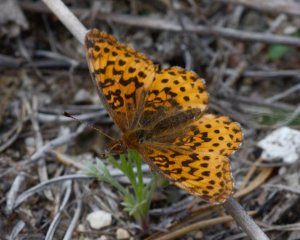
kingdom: Animalia
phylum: Arthropoda
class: Insecta
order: Lepidoptera
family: Nymphalidae
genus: Clossiana
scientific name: Clossiana toddi
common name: Meadow Fritillary
